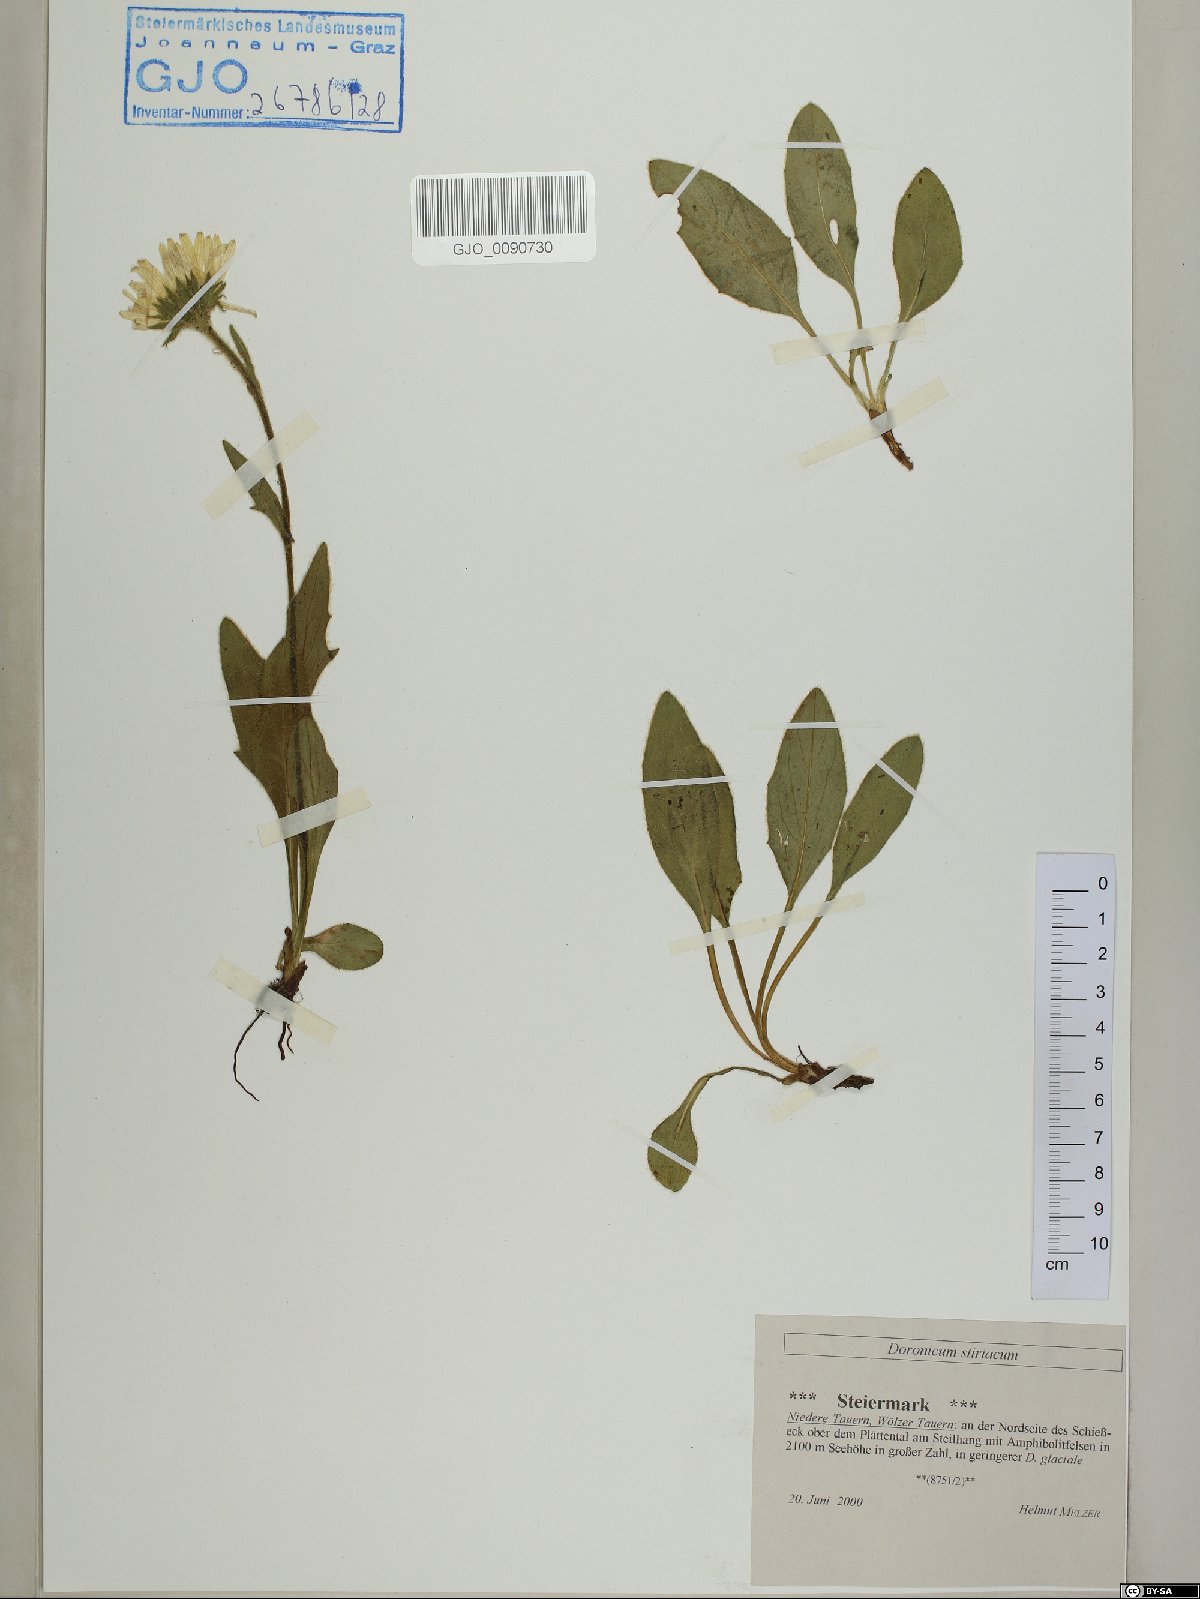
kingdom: Plantae
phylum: Tracheophyta
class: Magnoliopsida
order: Asterales
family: Asteraceae
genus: Doronicum
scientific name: Doronicum clusii
